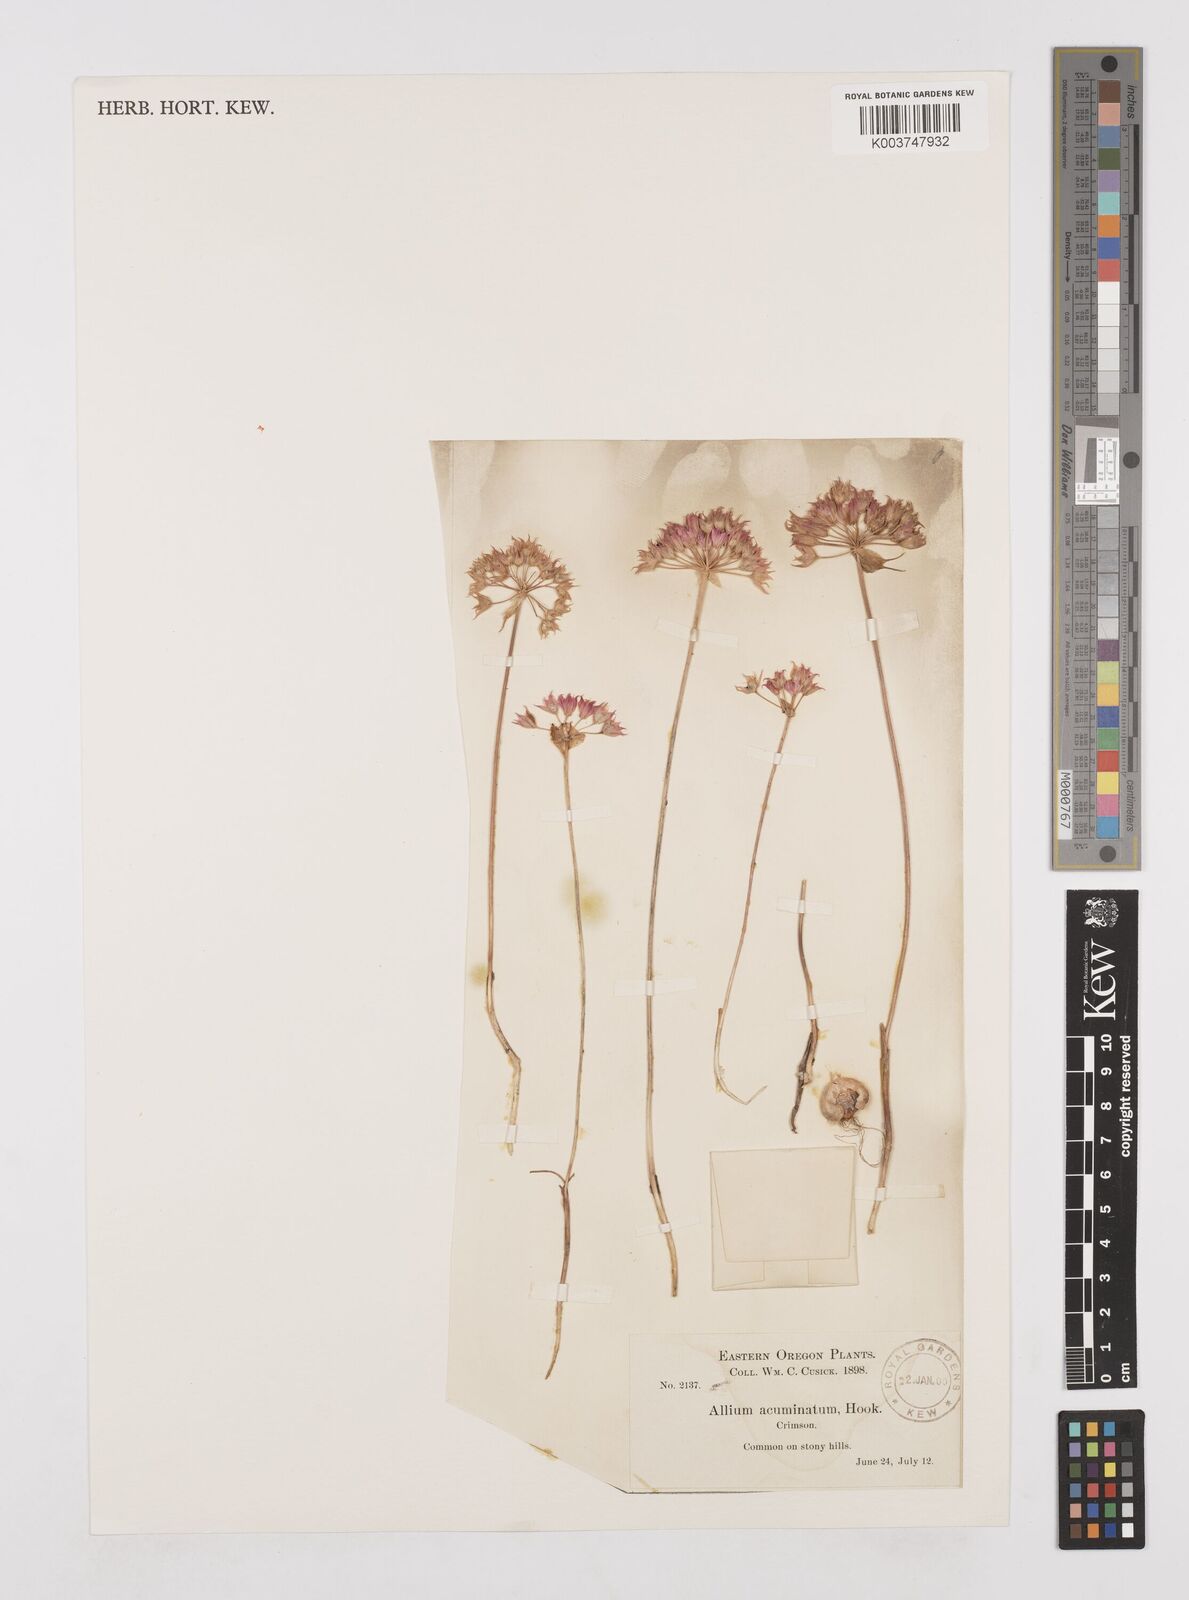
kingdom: Plantae
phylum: Tracheophyta
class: Liliopsida
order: Asparagales
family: Amaryllidaceae
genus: Allium
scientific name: Allium acuminatum
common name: Hooker's onion
